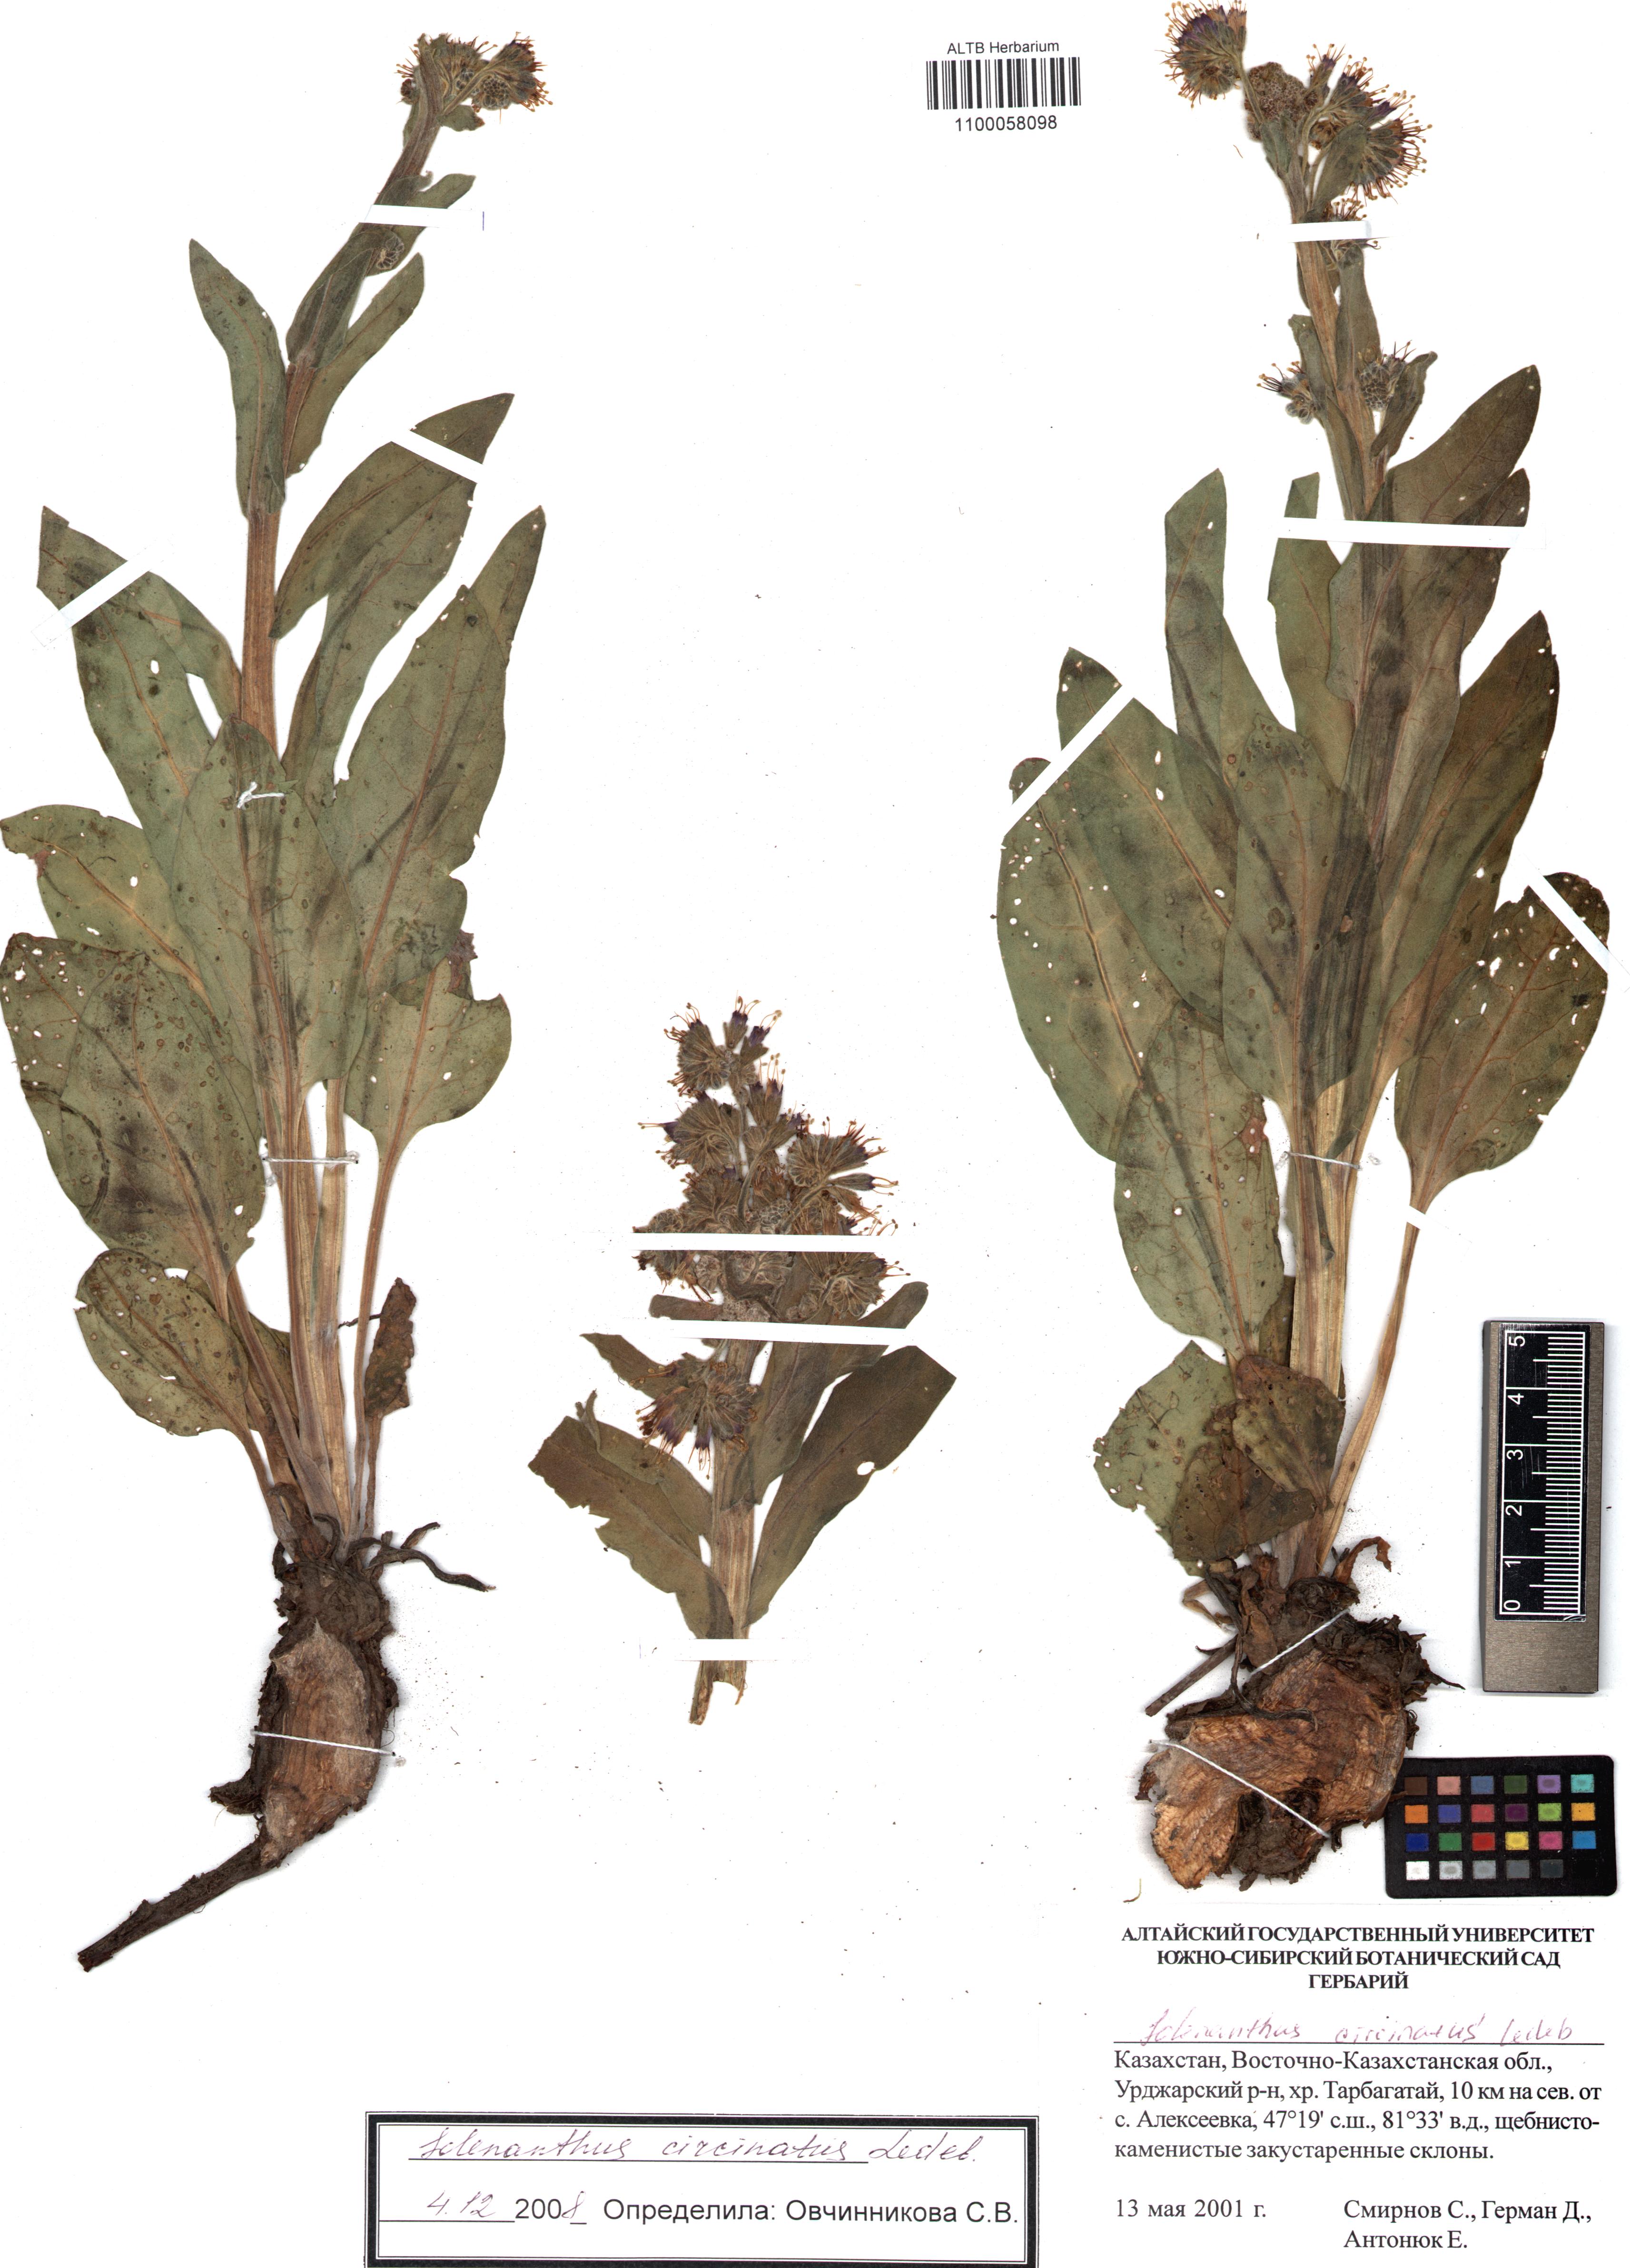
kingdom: Plantae
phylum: Tracheophyta
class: Magnoliopsida
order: Boraginales
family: Boraginaceae
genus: Solenanthus
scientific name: Solenanthus circinnatus
